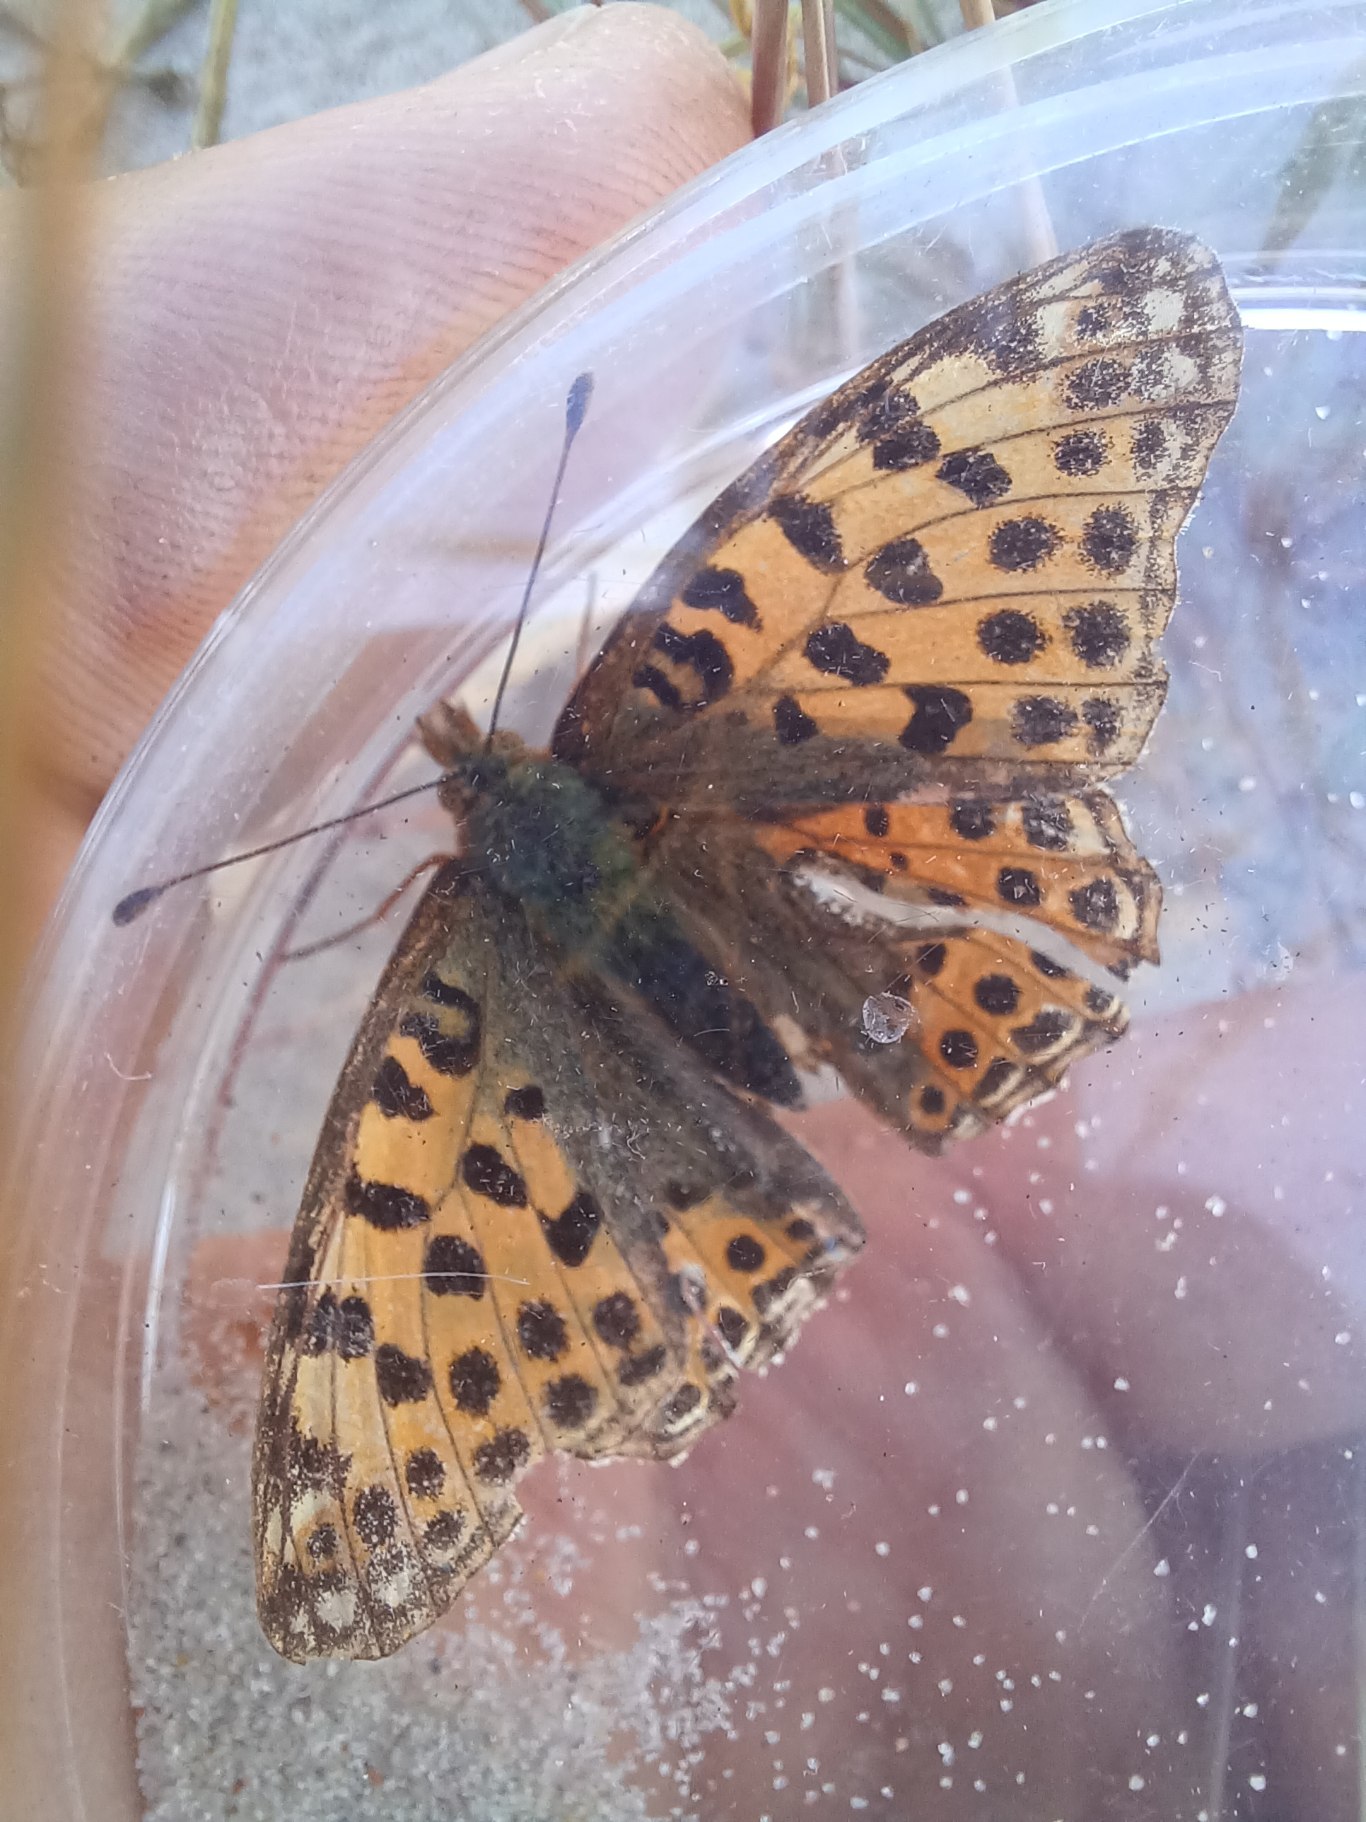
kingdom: Animalia
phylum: Arthropoda
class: Insecta
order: Lepidoptera
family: Nymphalidae
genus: Issoria
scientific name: Issoria lathonia
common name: Storplettet perlemorsommerfugl
